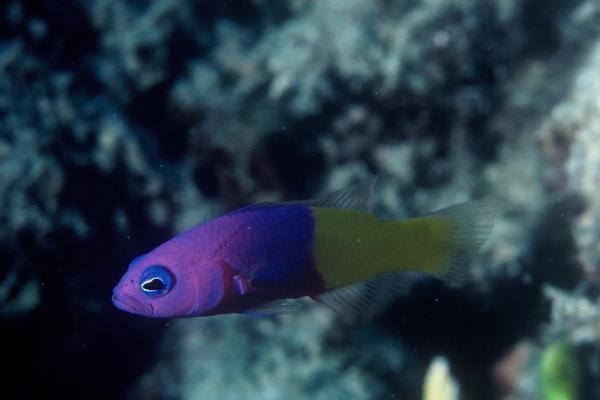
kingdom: Animalia
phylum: Chordata
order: Perciformes
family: Pseudochromidae
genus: Pictichromis
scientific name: Pictichromis paccagnellae
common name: Royal dottyback
